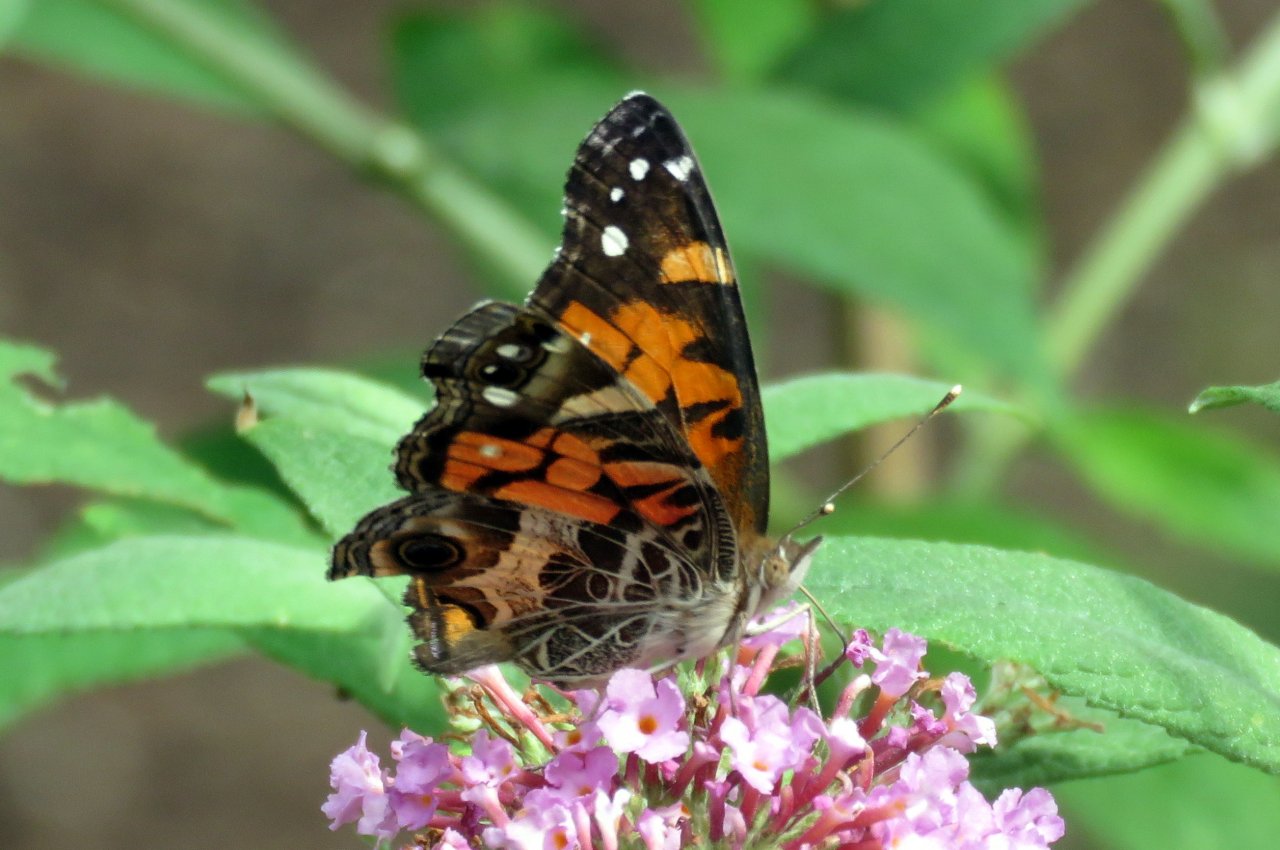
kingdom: Animalia
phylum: Arthropoda
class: Insecta
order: Lepidoptera
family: Nymphalidae
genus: Vanessa
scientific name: Vanessa virginiensis
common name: American Lady
